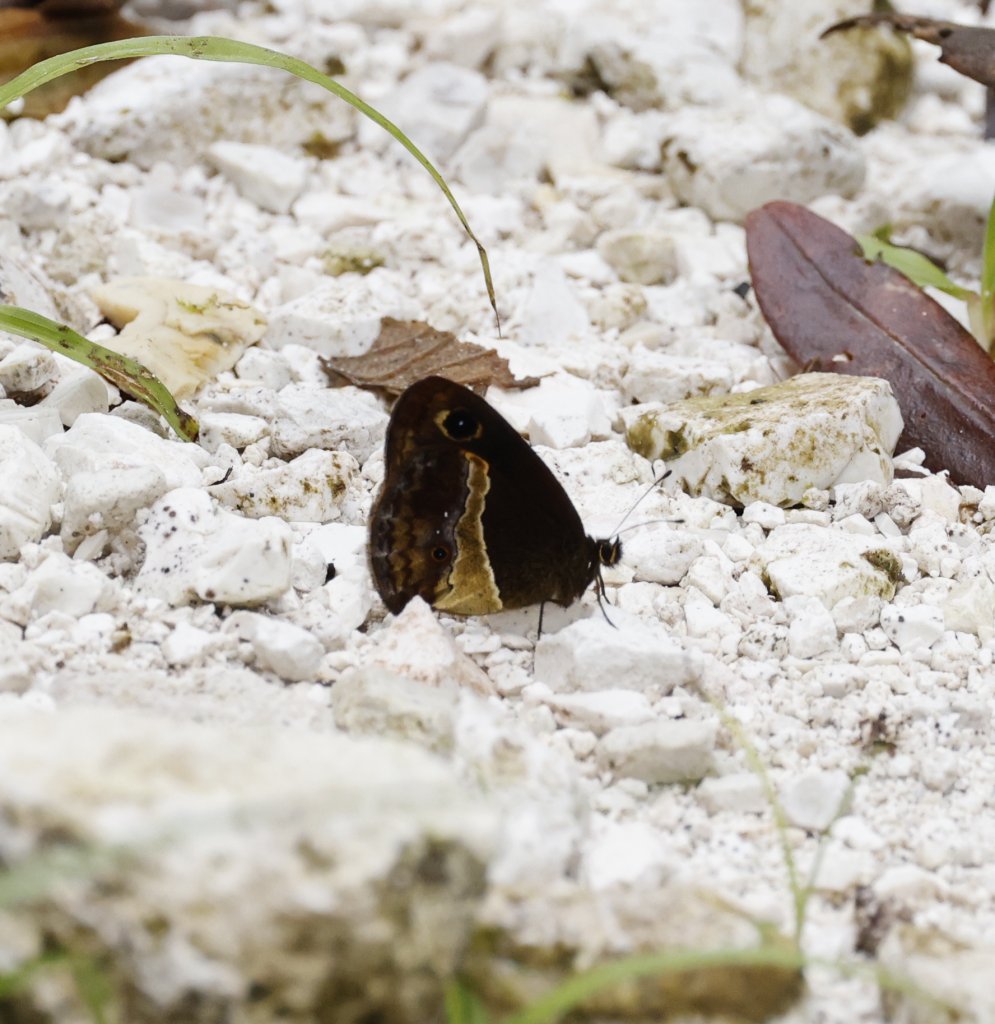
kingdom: Animalia
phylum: Arthropoda
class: Insecta
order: Lepidoptera
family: Nymphalidae
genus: Calisto
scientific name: Calisto archebates
